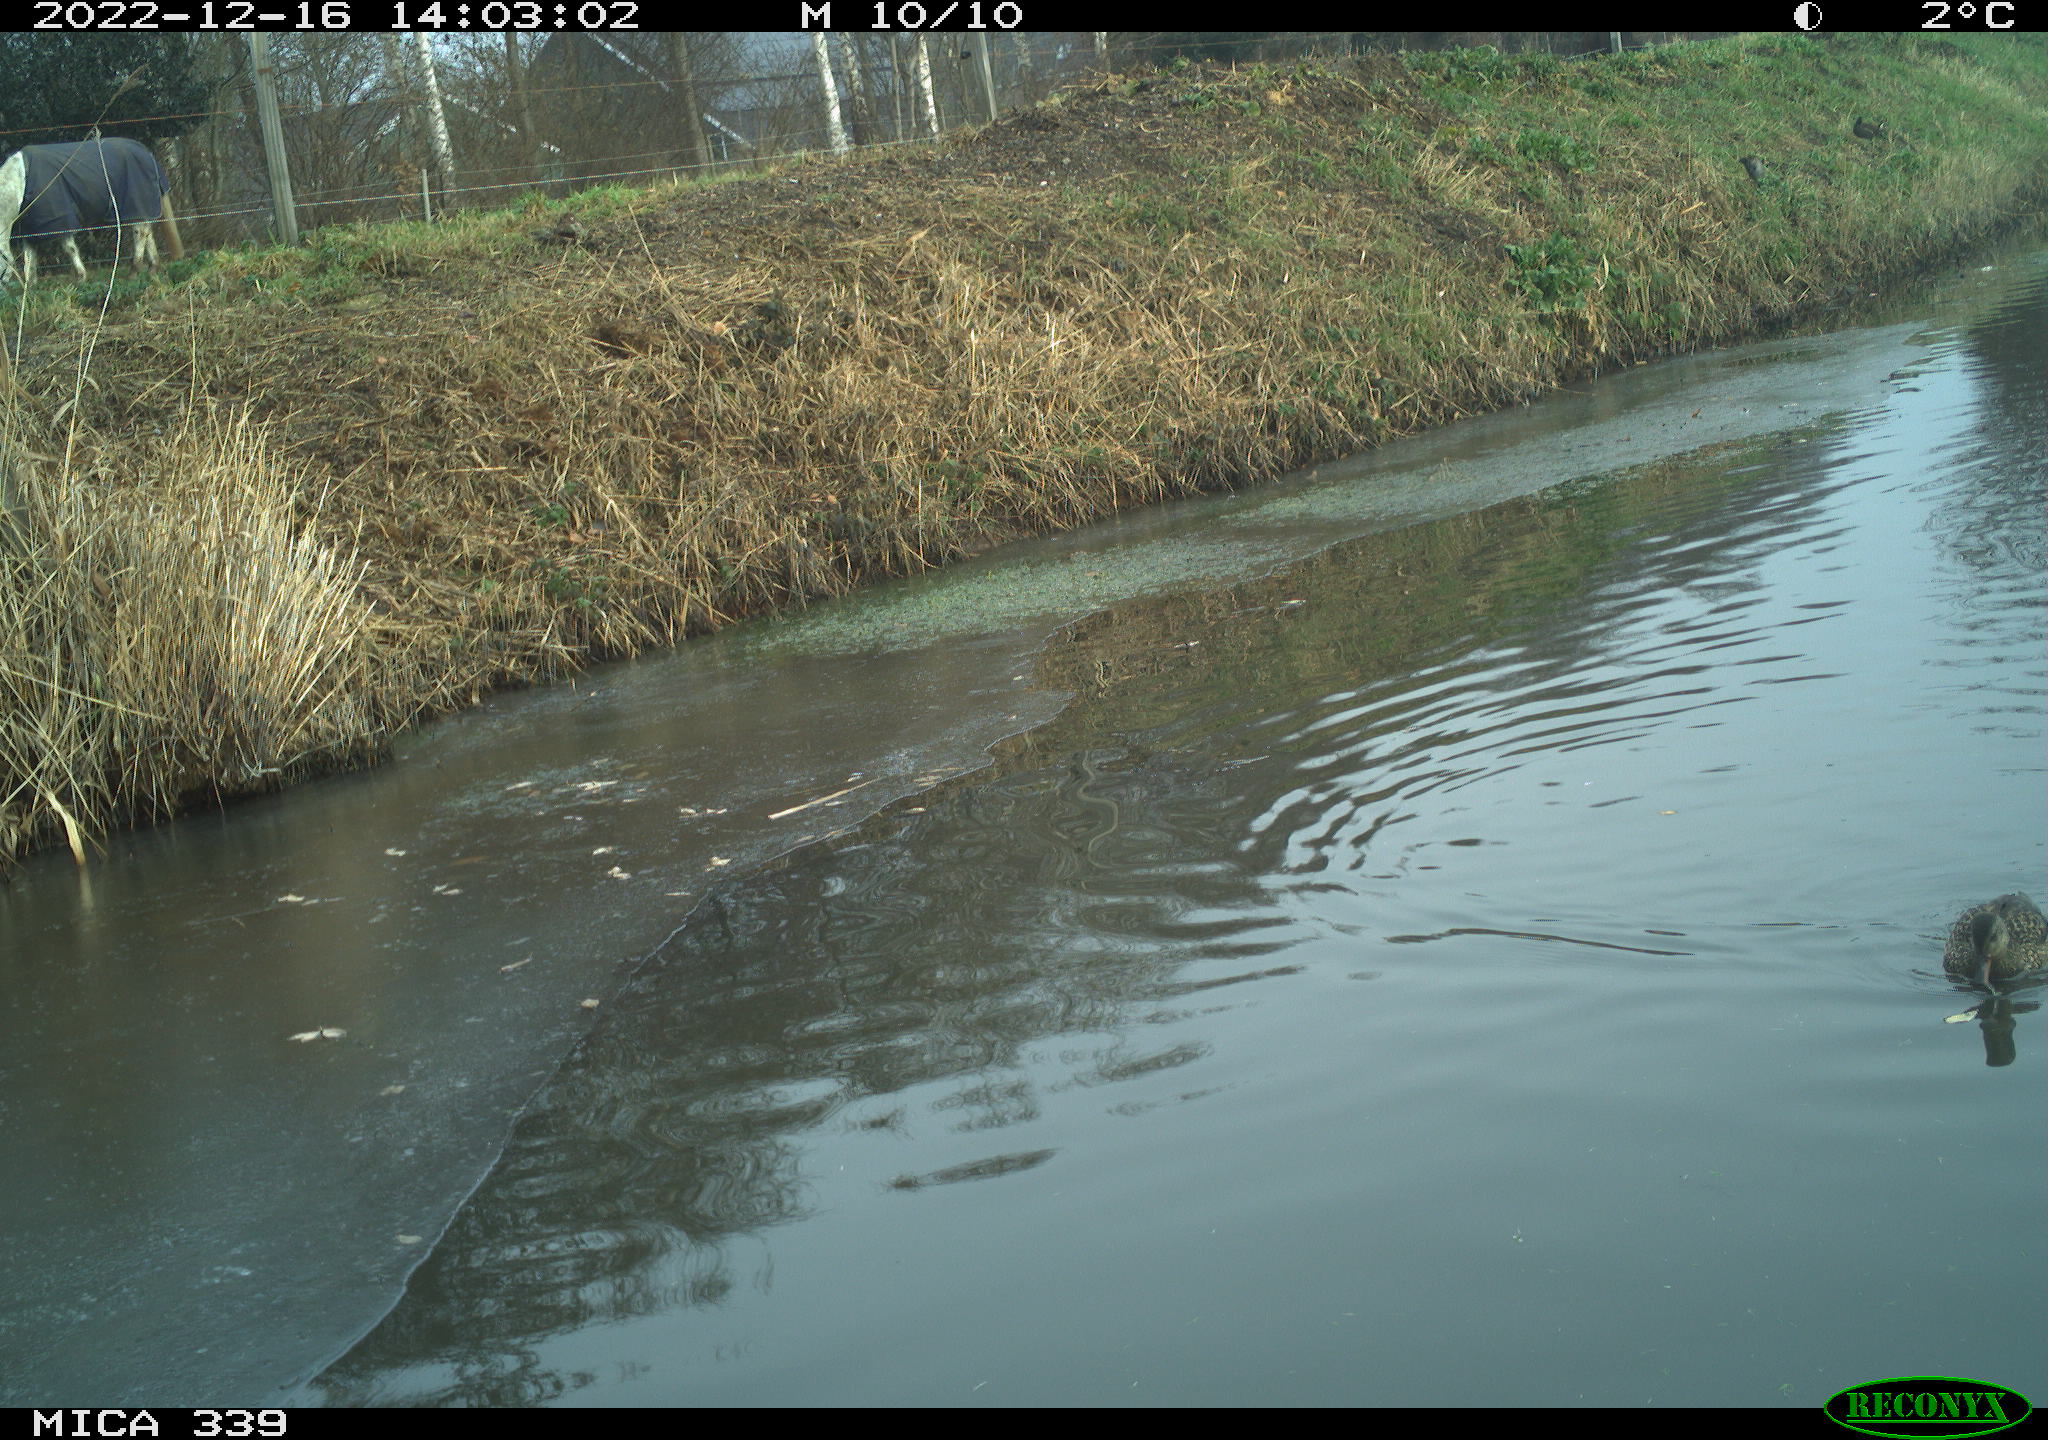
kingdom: Animalia
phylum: Chordata
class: Aves
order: Anseriformes
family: Anatidae
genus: Anas
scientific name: Anas
